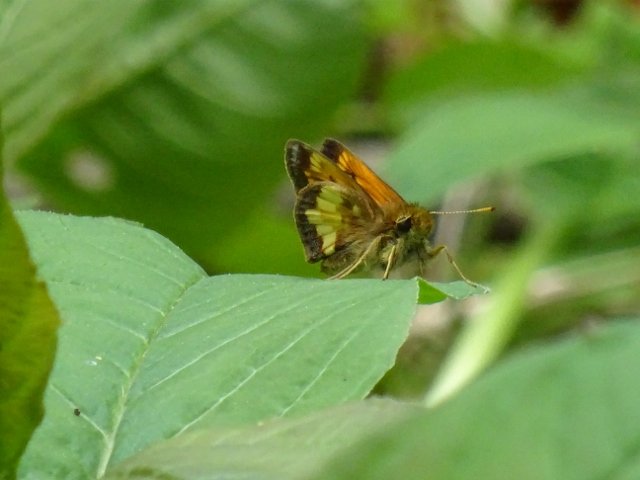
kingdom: Animalia
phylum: Arthropoda
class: Insecta
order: Lepidoptera
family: Hesperiidae
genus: Lon
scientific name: Lon hobomok
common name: Hobomok Skipper
